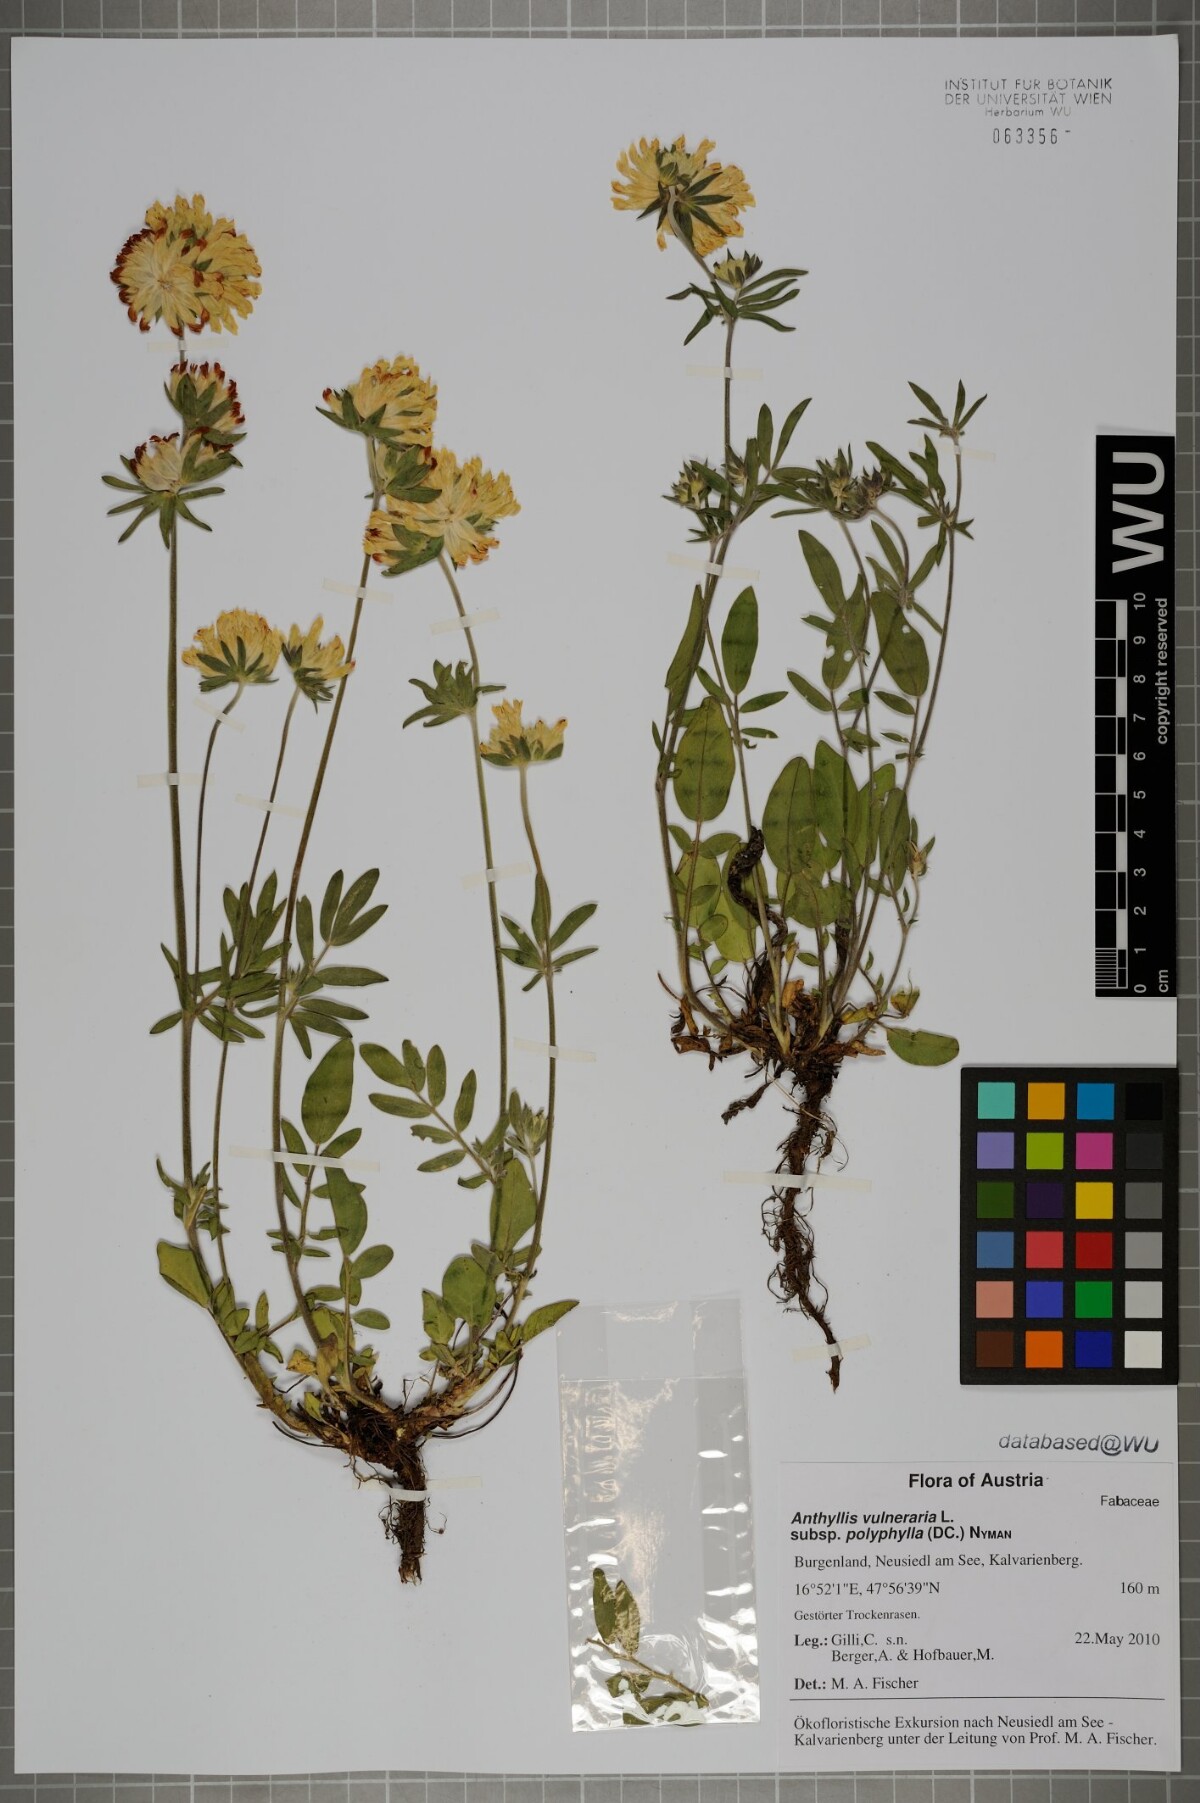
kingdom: Plantae
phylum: Tracheophyta
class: Magnoliopsida
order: Fabales
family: Fabaceae
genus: Anthyllis
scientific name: Anthyllis vulneraria
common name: Kidney vetch
